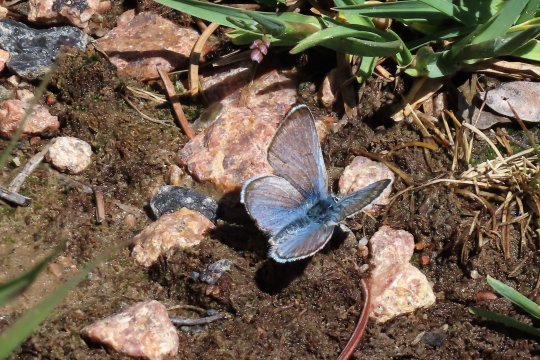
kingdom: Animalia
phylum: Arthropoda
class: Insecta
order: Lepidoptera
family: Lycaenidae
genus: Plebejus
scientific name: Plebejus saepiolus
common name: Greenish Blue
